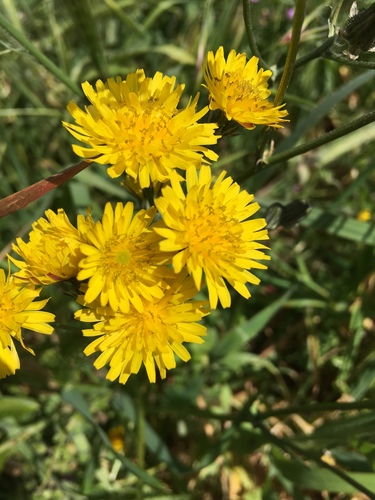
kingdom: Plantae
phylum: Tracheophyta
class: Magnoliopsida
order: Asterales
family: Asteraceae
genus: Crepis
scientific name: Crepis vesicaria
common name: Beaked hawksbeard
